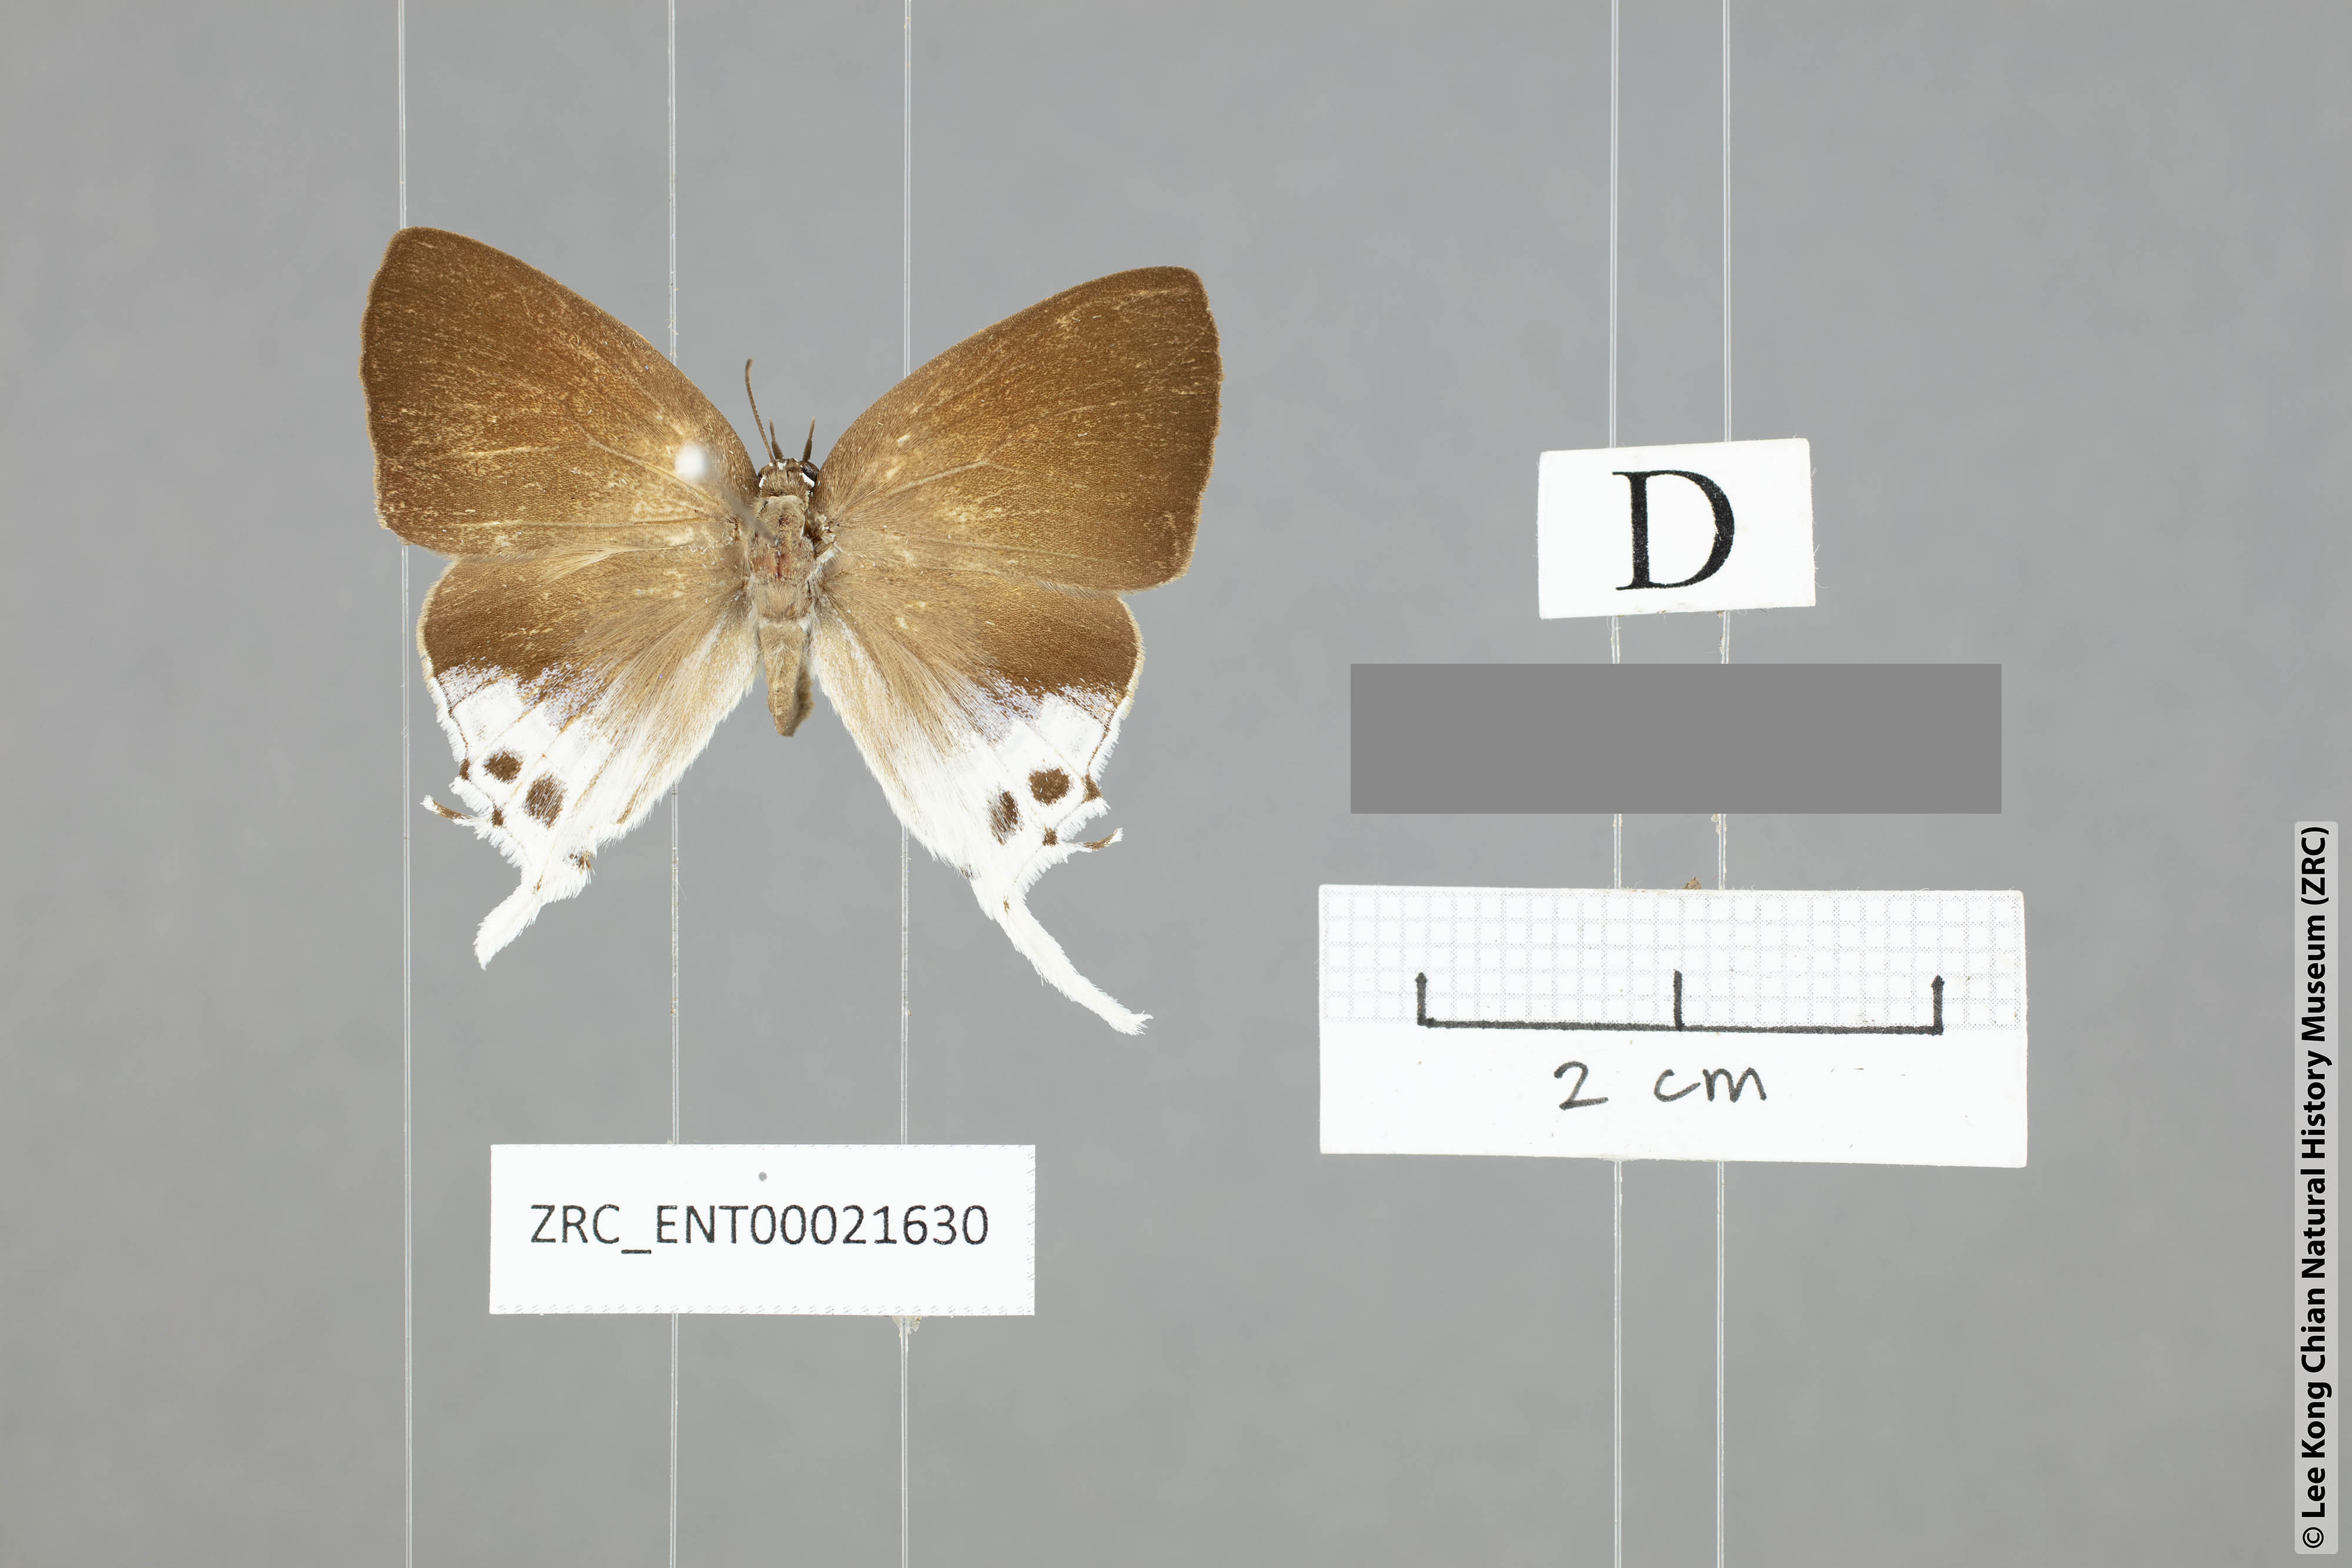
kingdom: Animalia
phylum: Arthropoda
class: Insecta
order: Lepidoptera
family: Lycaenidae
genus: Mantoides
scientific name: Mantoides gama
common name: Distant's imperial
